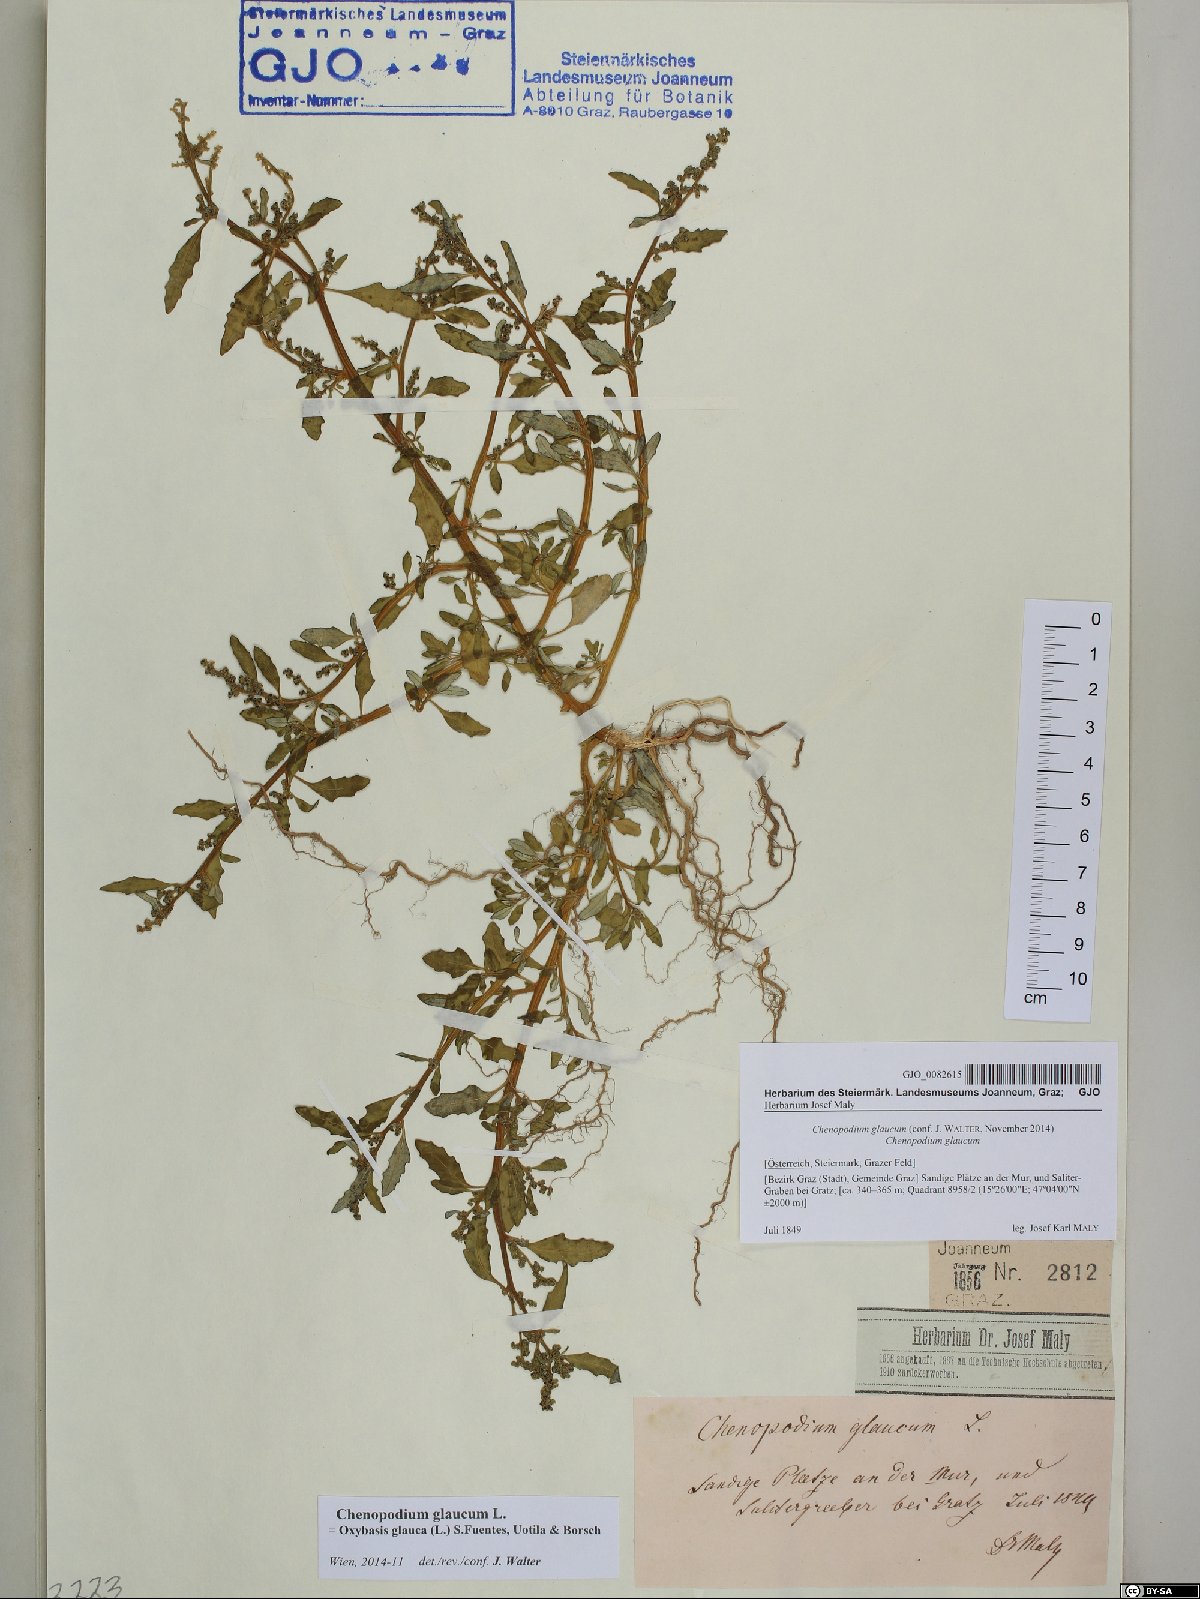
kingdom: Plantae
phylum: Tracheophyta
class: Magnoliopsida
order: Caryophyllales
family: Amaranthaceae
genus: Oxybasis
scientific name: Oxybasis glauca
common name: Glaucous goosefoot
